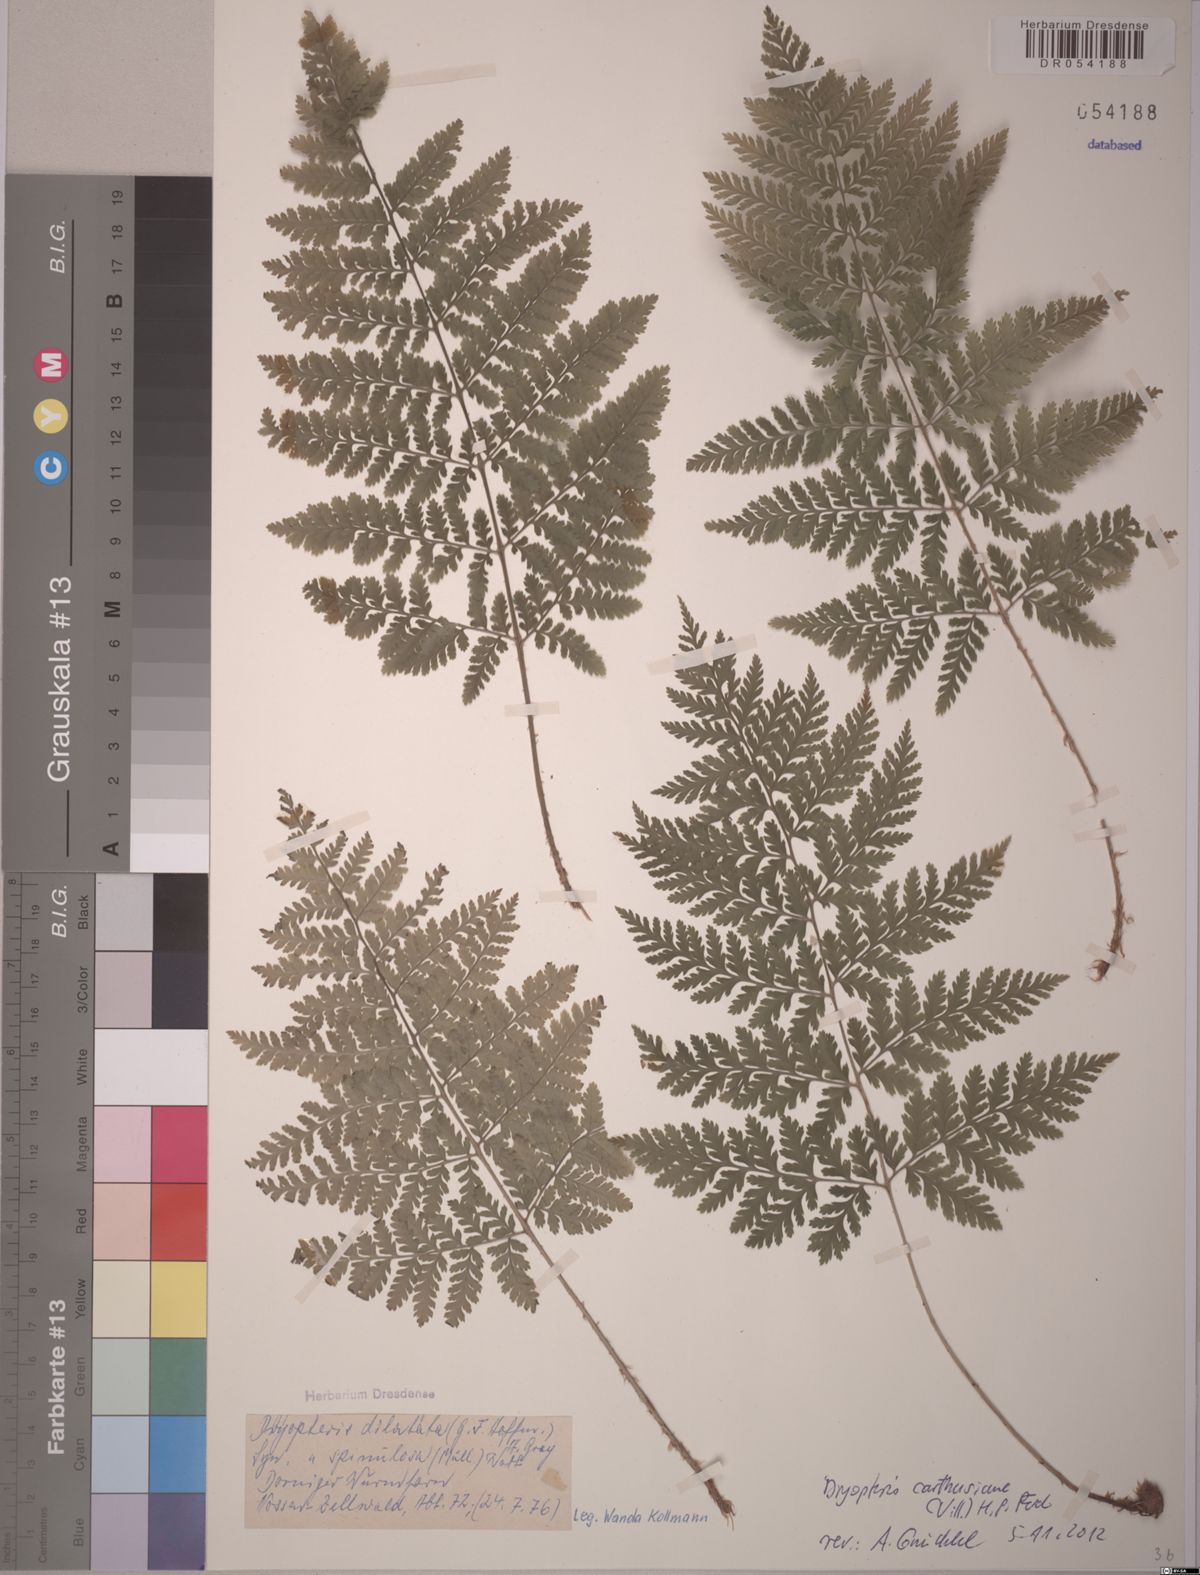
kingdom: Plantae
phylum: Tracheophyta
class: Polypodiopsida
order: Polypodiales
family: Dryopteridaceae
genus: Dryopteris
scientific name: Dryopteris carthusiana
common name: Narrow buckler-fern
